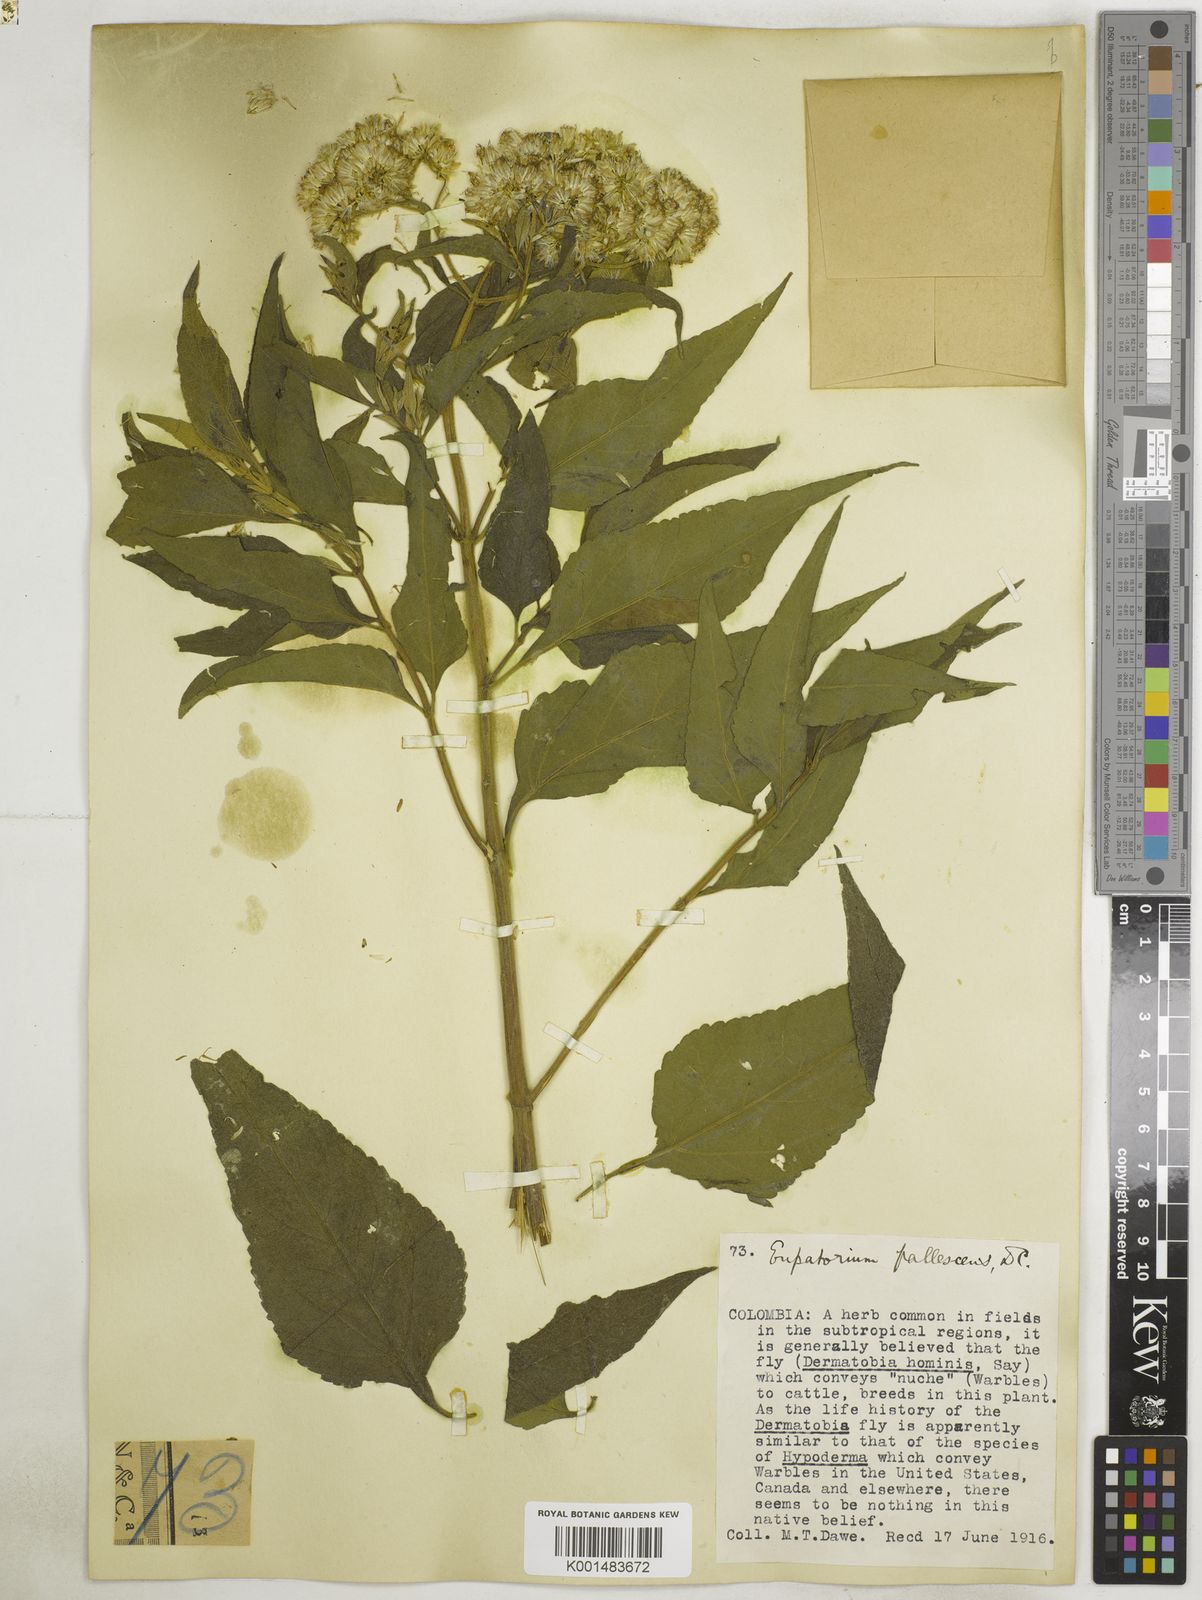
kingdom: Plantae
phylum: Tracheophyta
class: Magnoliopsida
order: Asterales
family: Asteraceae
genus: Austroeupatorium
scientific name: Austroeupatorium inulifolium
